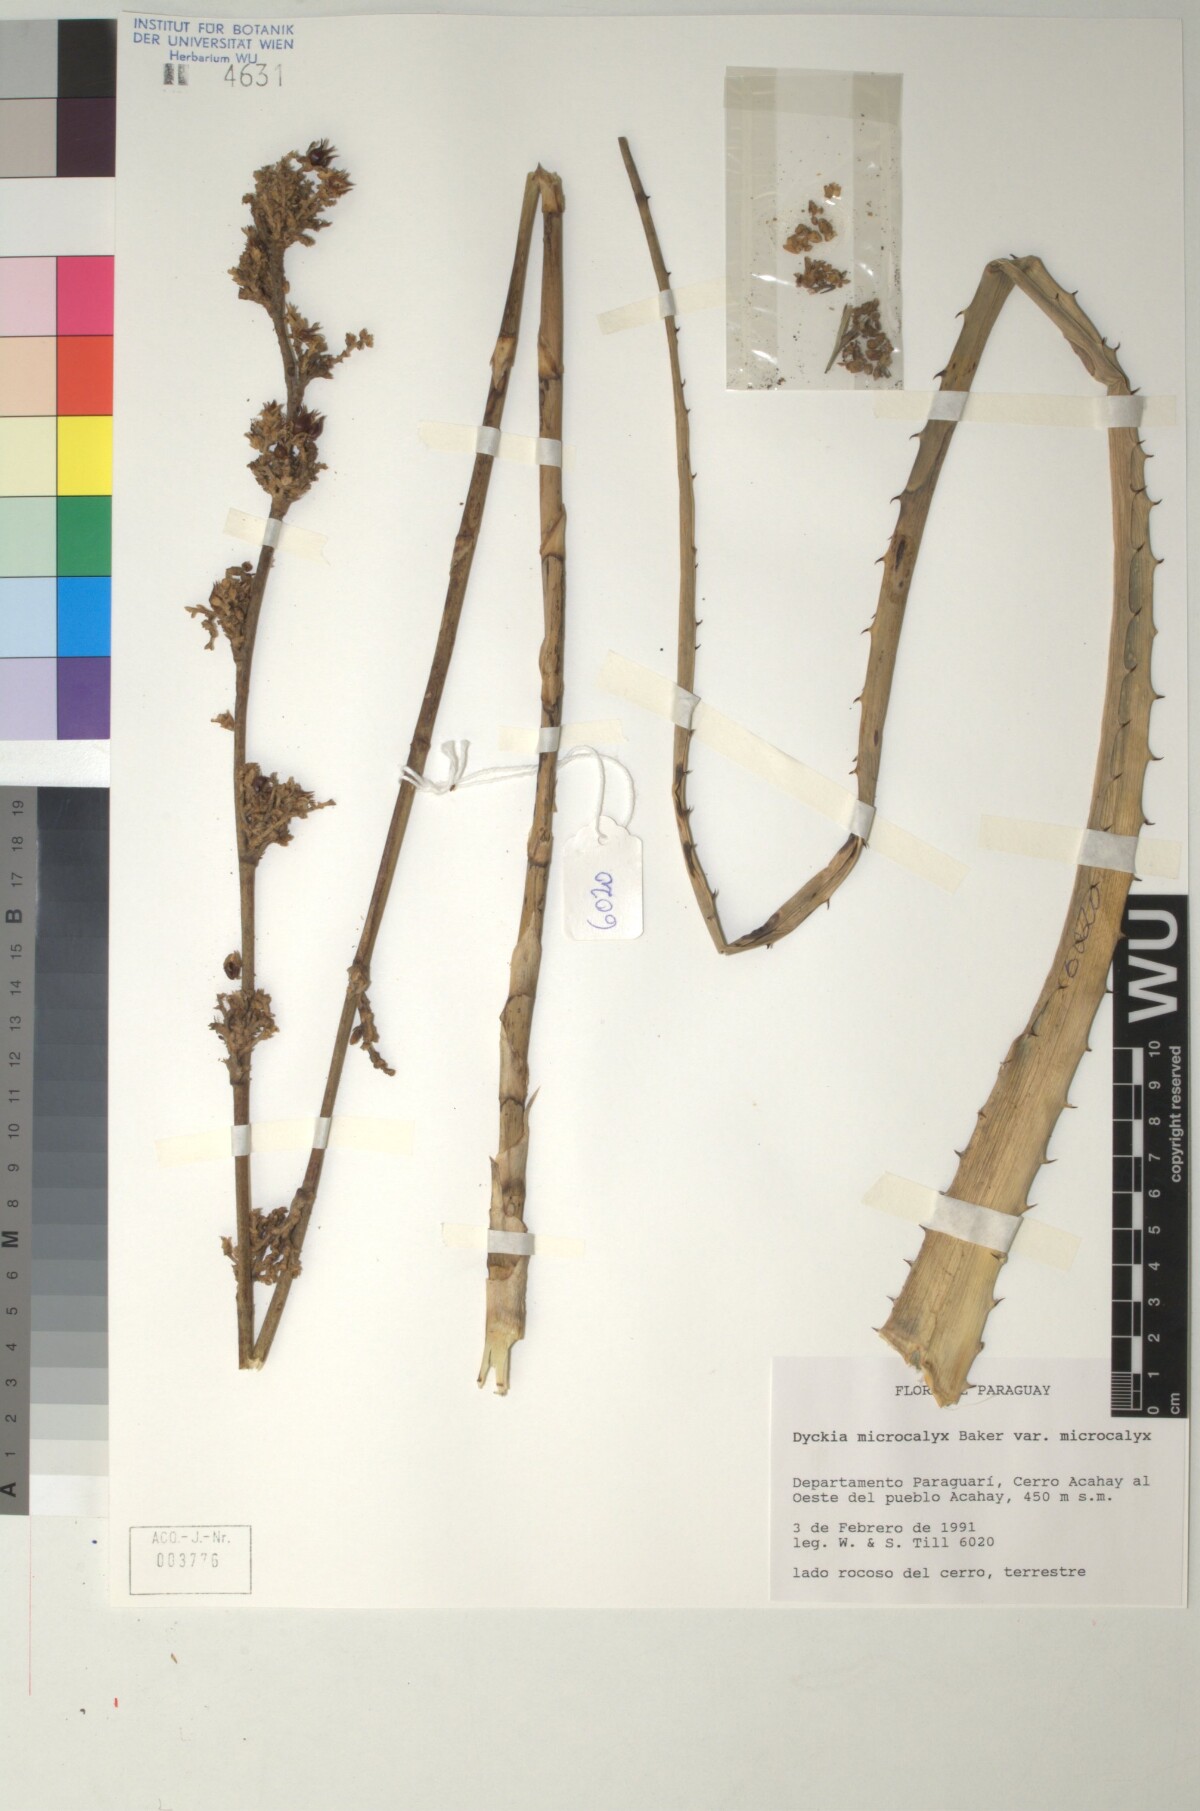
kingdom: Plantae
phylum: Tracheophyta
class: Liliopsida
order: Poales
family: Bromeliaceae
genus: Dyckia
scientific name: Dyckia microcalyx
